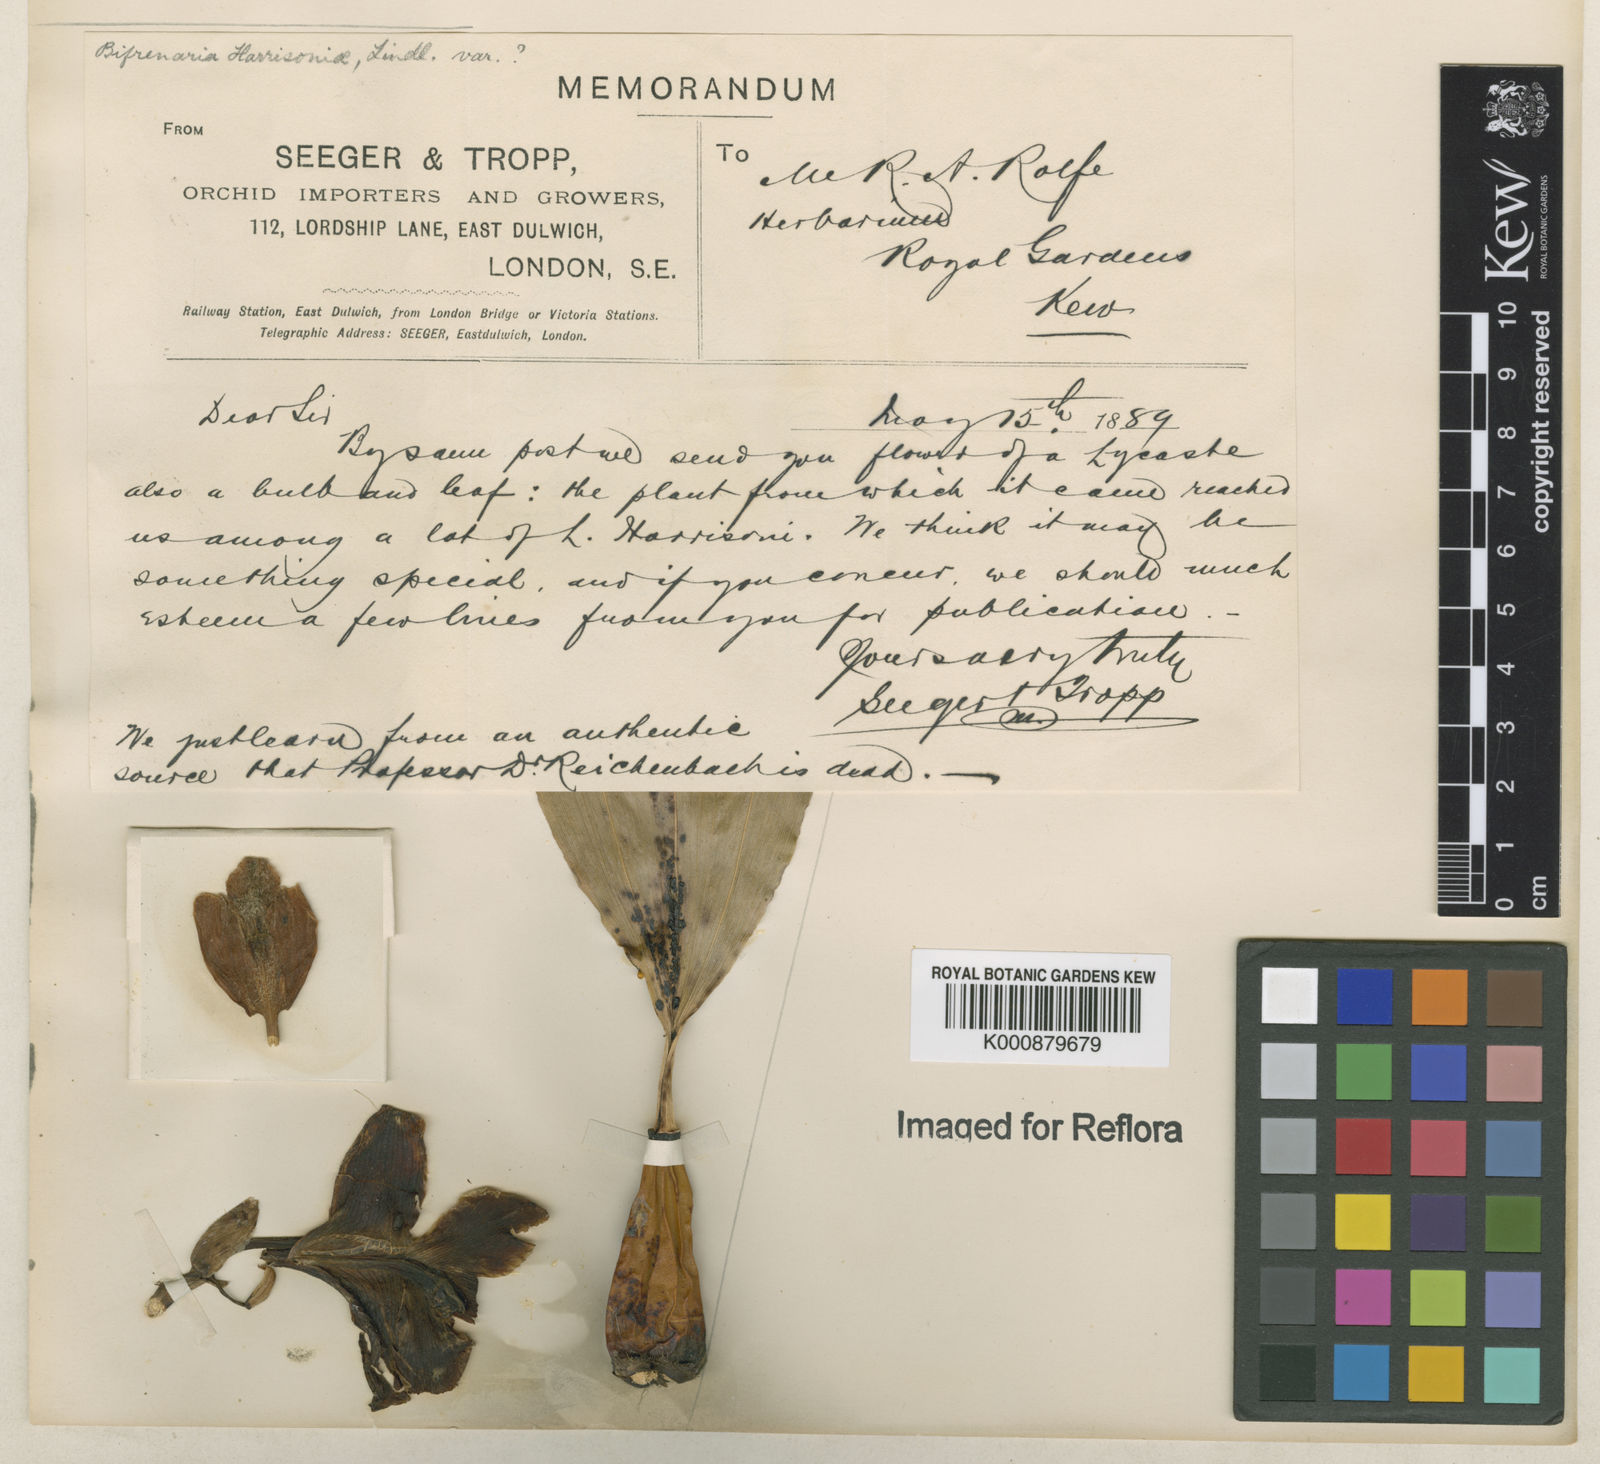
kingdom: Plantae
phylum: Tracheophyta
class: Liliopsida
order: Asparagales
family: Orchidaceae
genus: Bifrenaria
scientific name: Bifrenaria inodora
